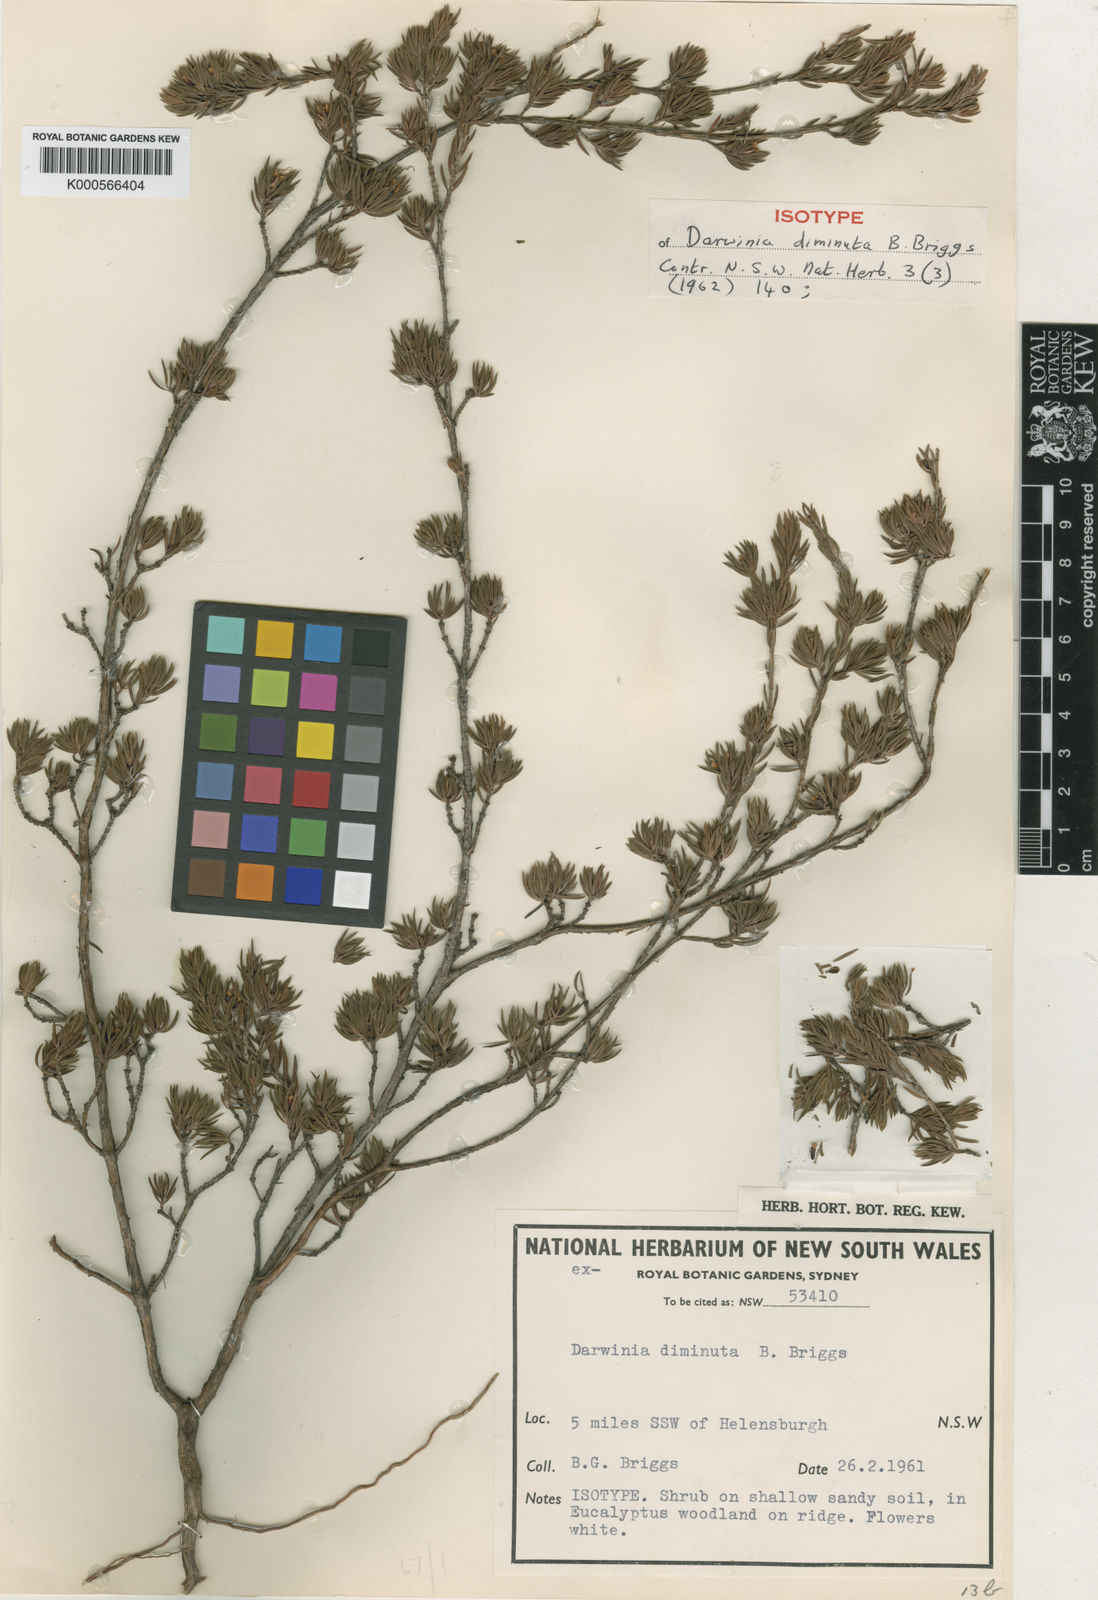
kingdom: Plantae
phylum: Tracheophyta
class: Magnoliopsida
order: Myrtales
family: Myrtaceae
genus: Darwinia
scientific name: Darwinia diminuta
